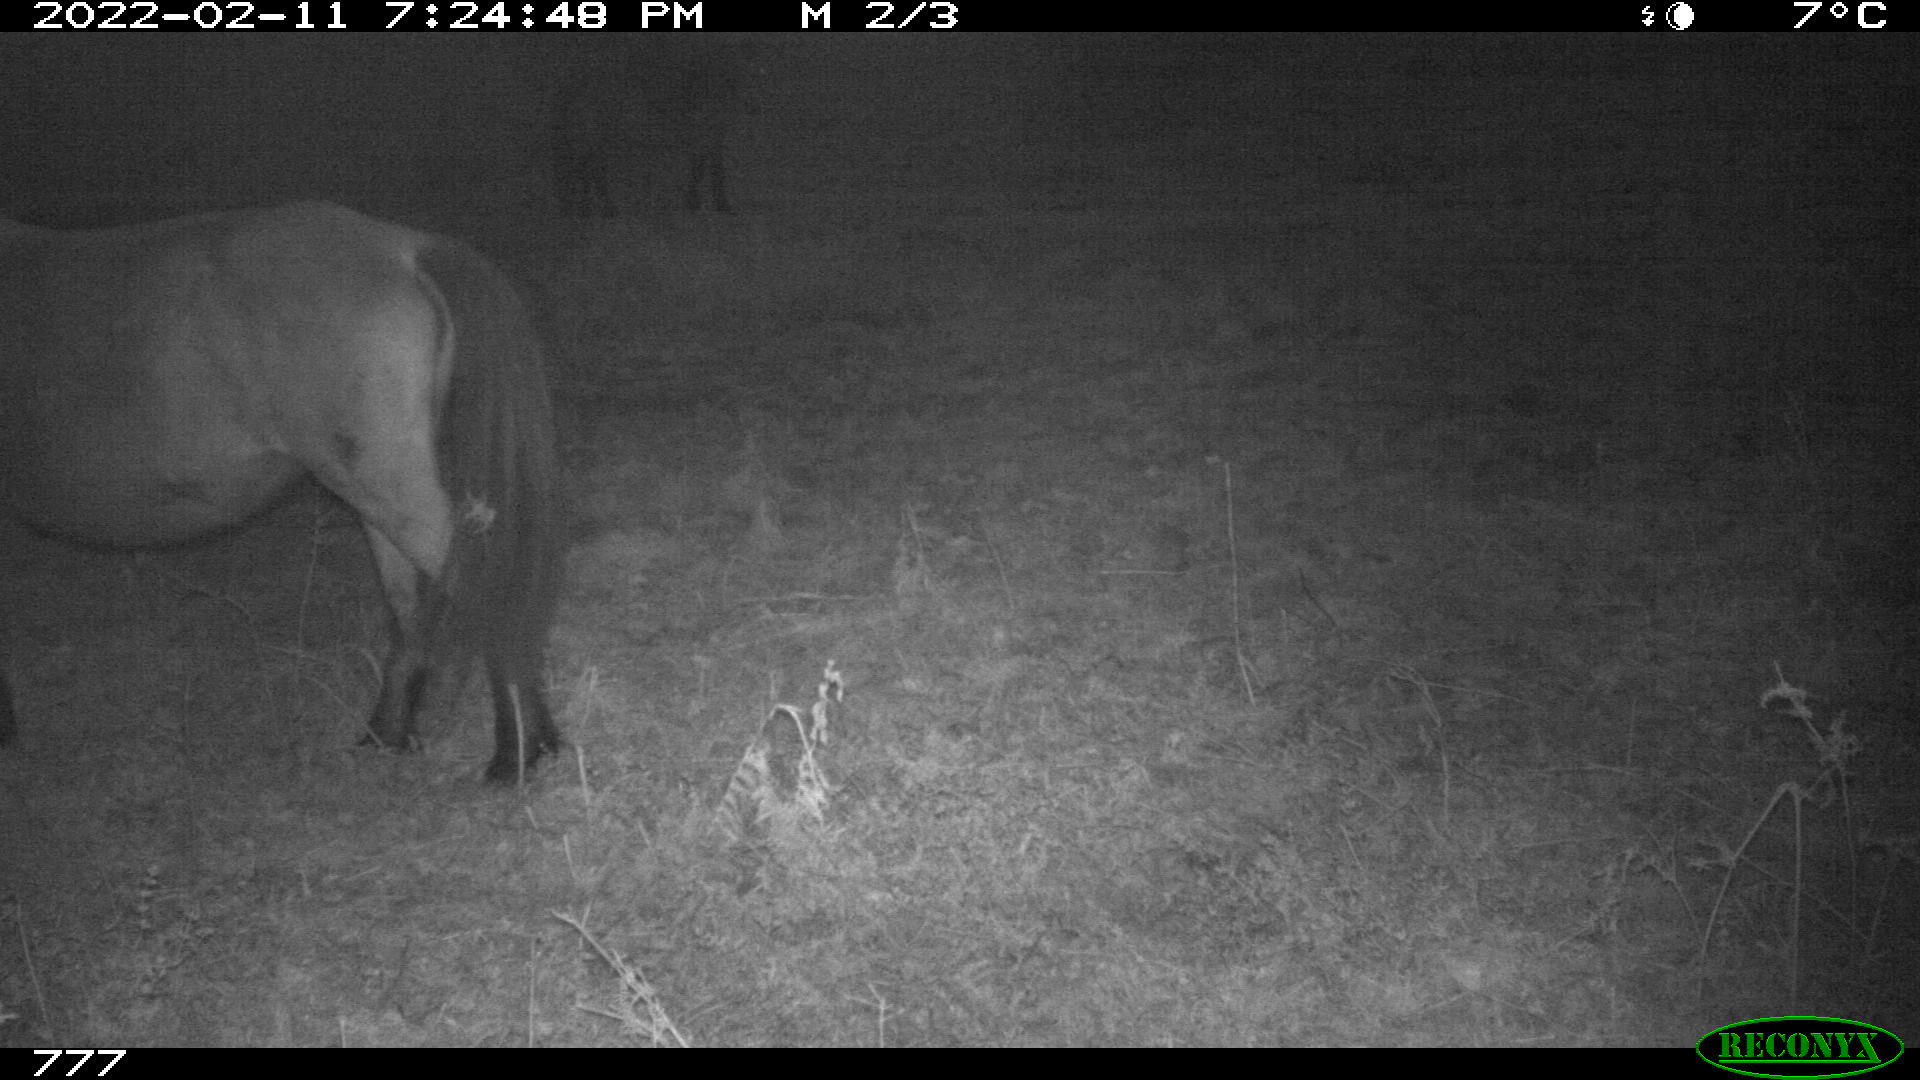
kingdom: Animalia
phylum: Chordata
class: Mammalia
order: Perissodactyla
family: Equidae
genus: Equus
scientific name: Equus caballus
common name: Horse
